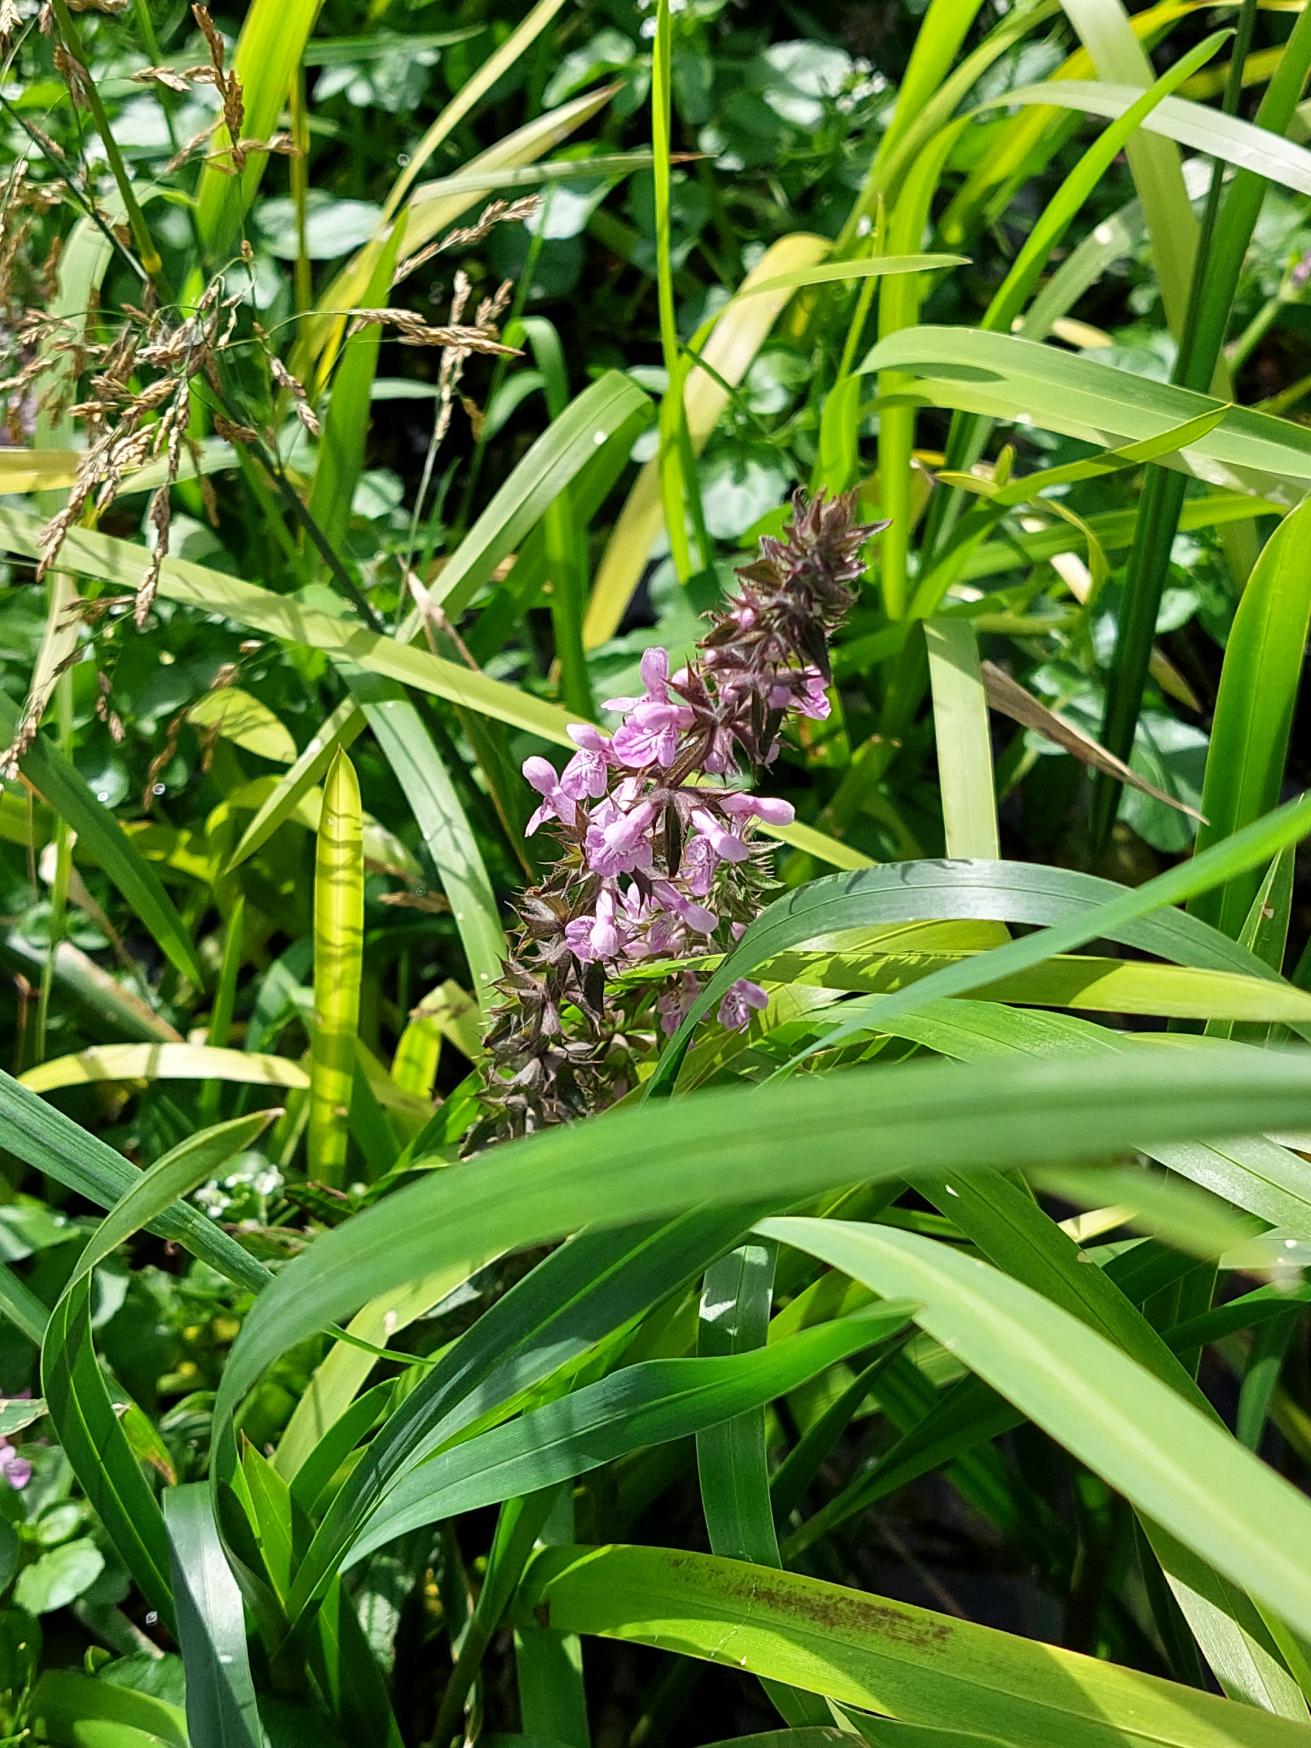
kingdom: Plantae
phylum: Tracheophyta
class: Magnoliopsida
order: Lamiales
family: Lamiaceae
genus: Stachys
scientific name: Stachys palustris
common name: Kær-galtetand
